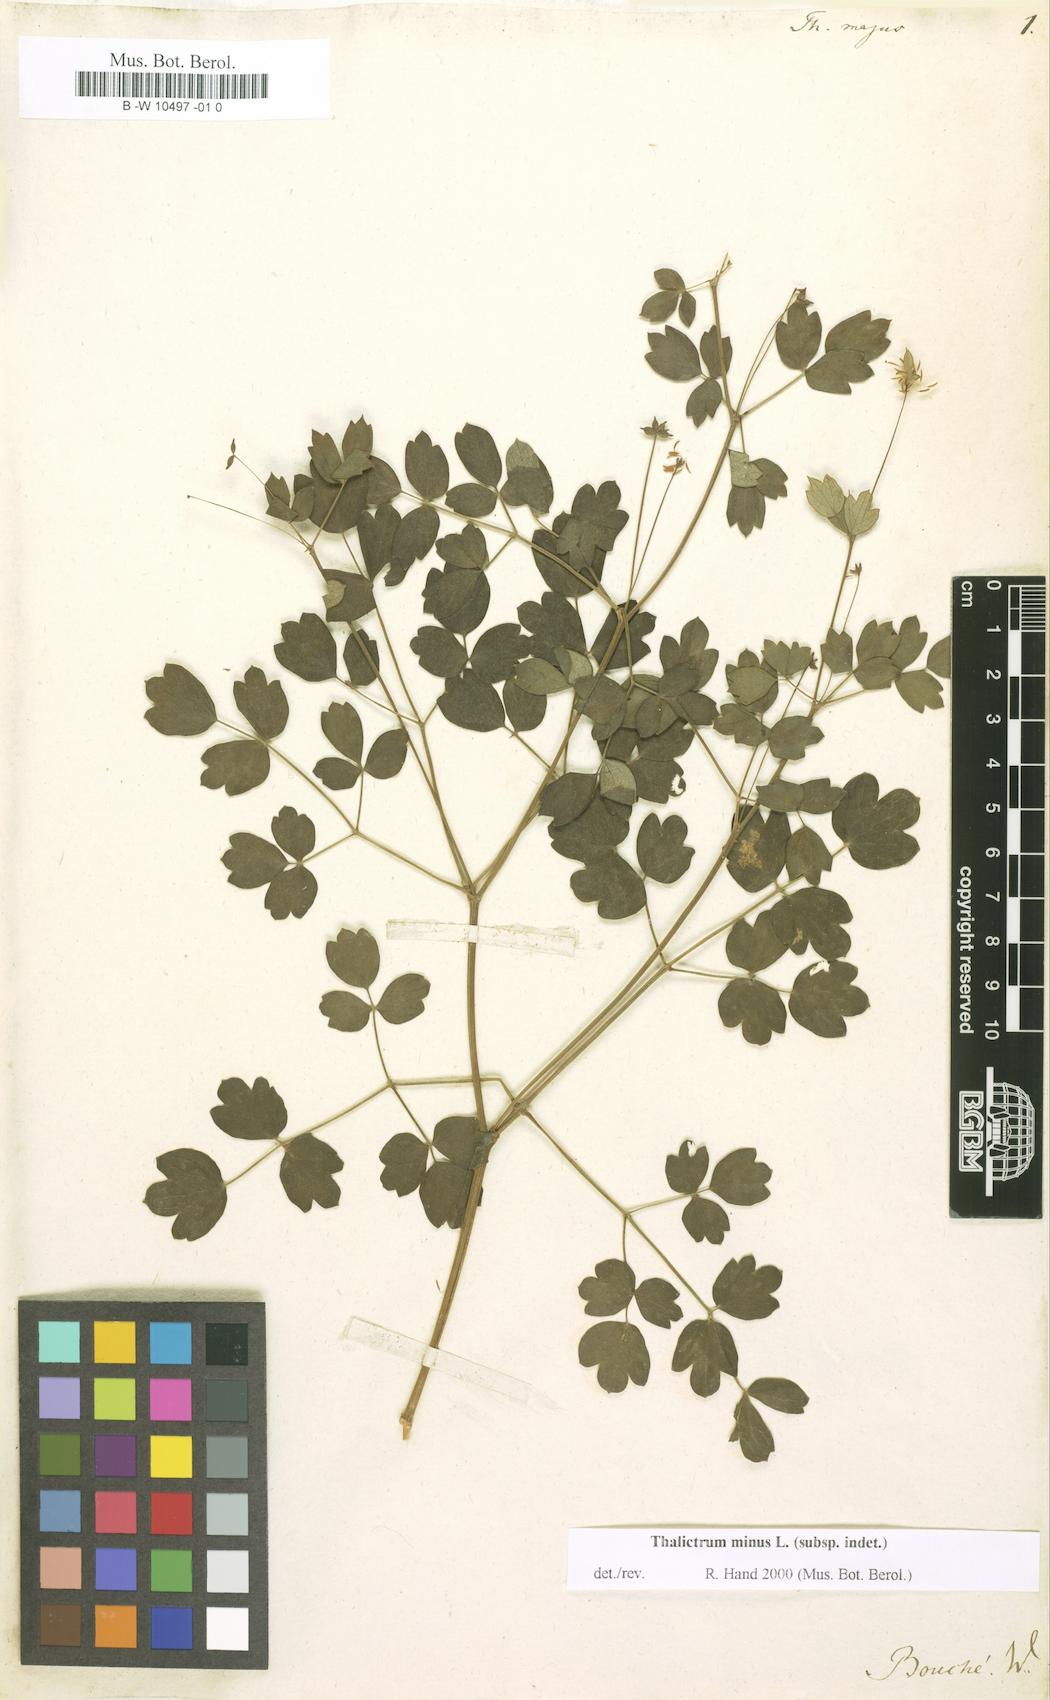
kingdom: Plantae
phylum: Tracheophyta
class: Magnoliopsida
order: Ranunculales
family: Ranunculaceae
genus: Thalictrum
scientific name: Thalictrum majus
